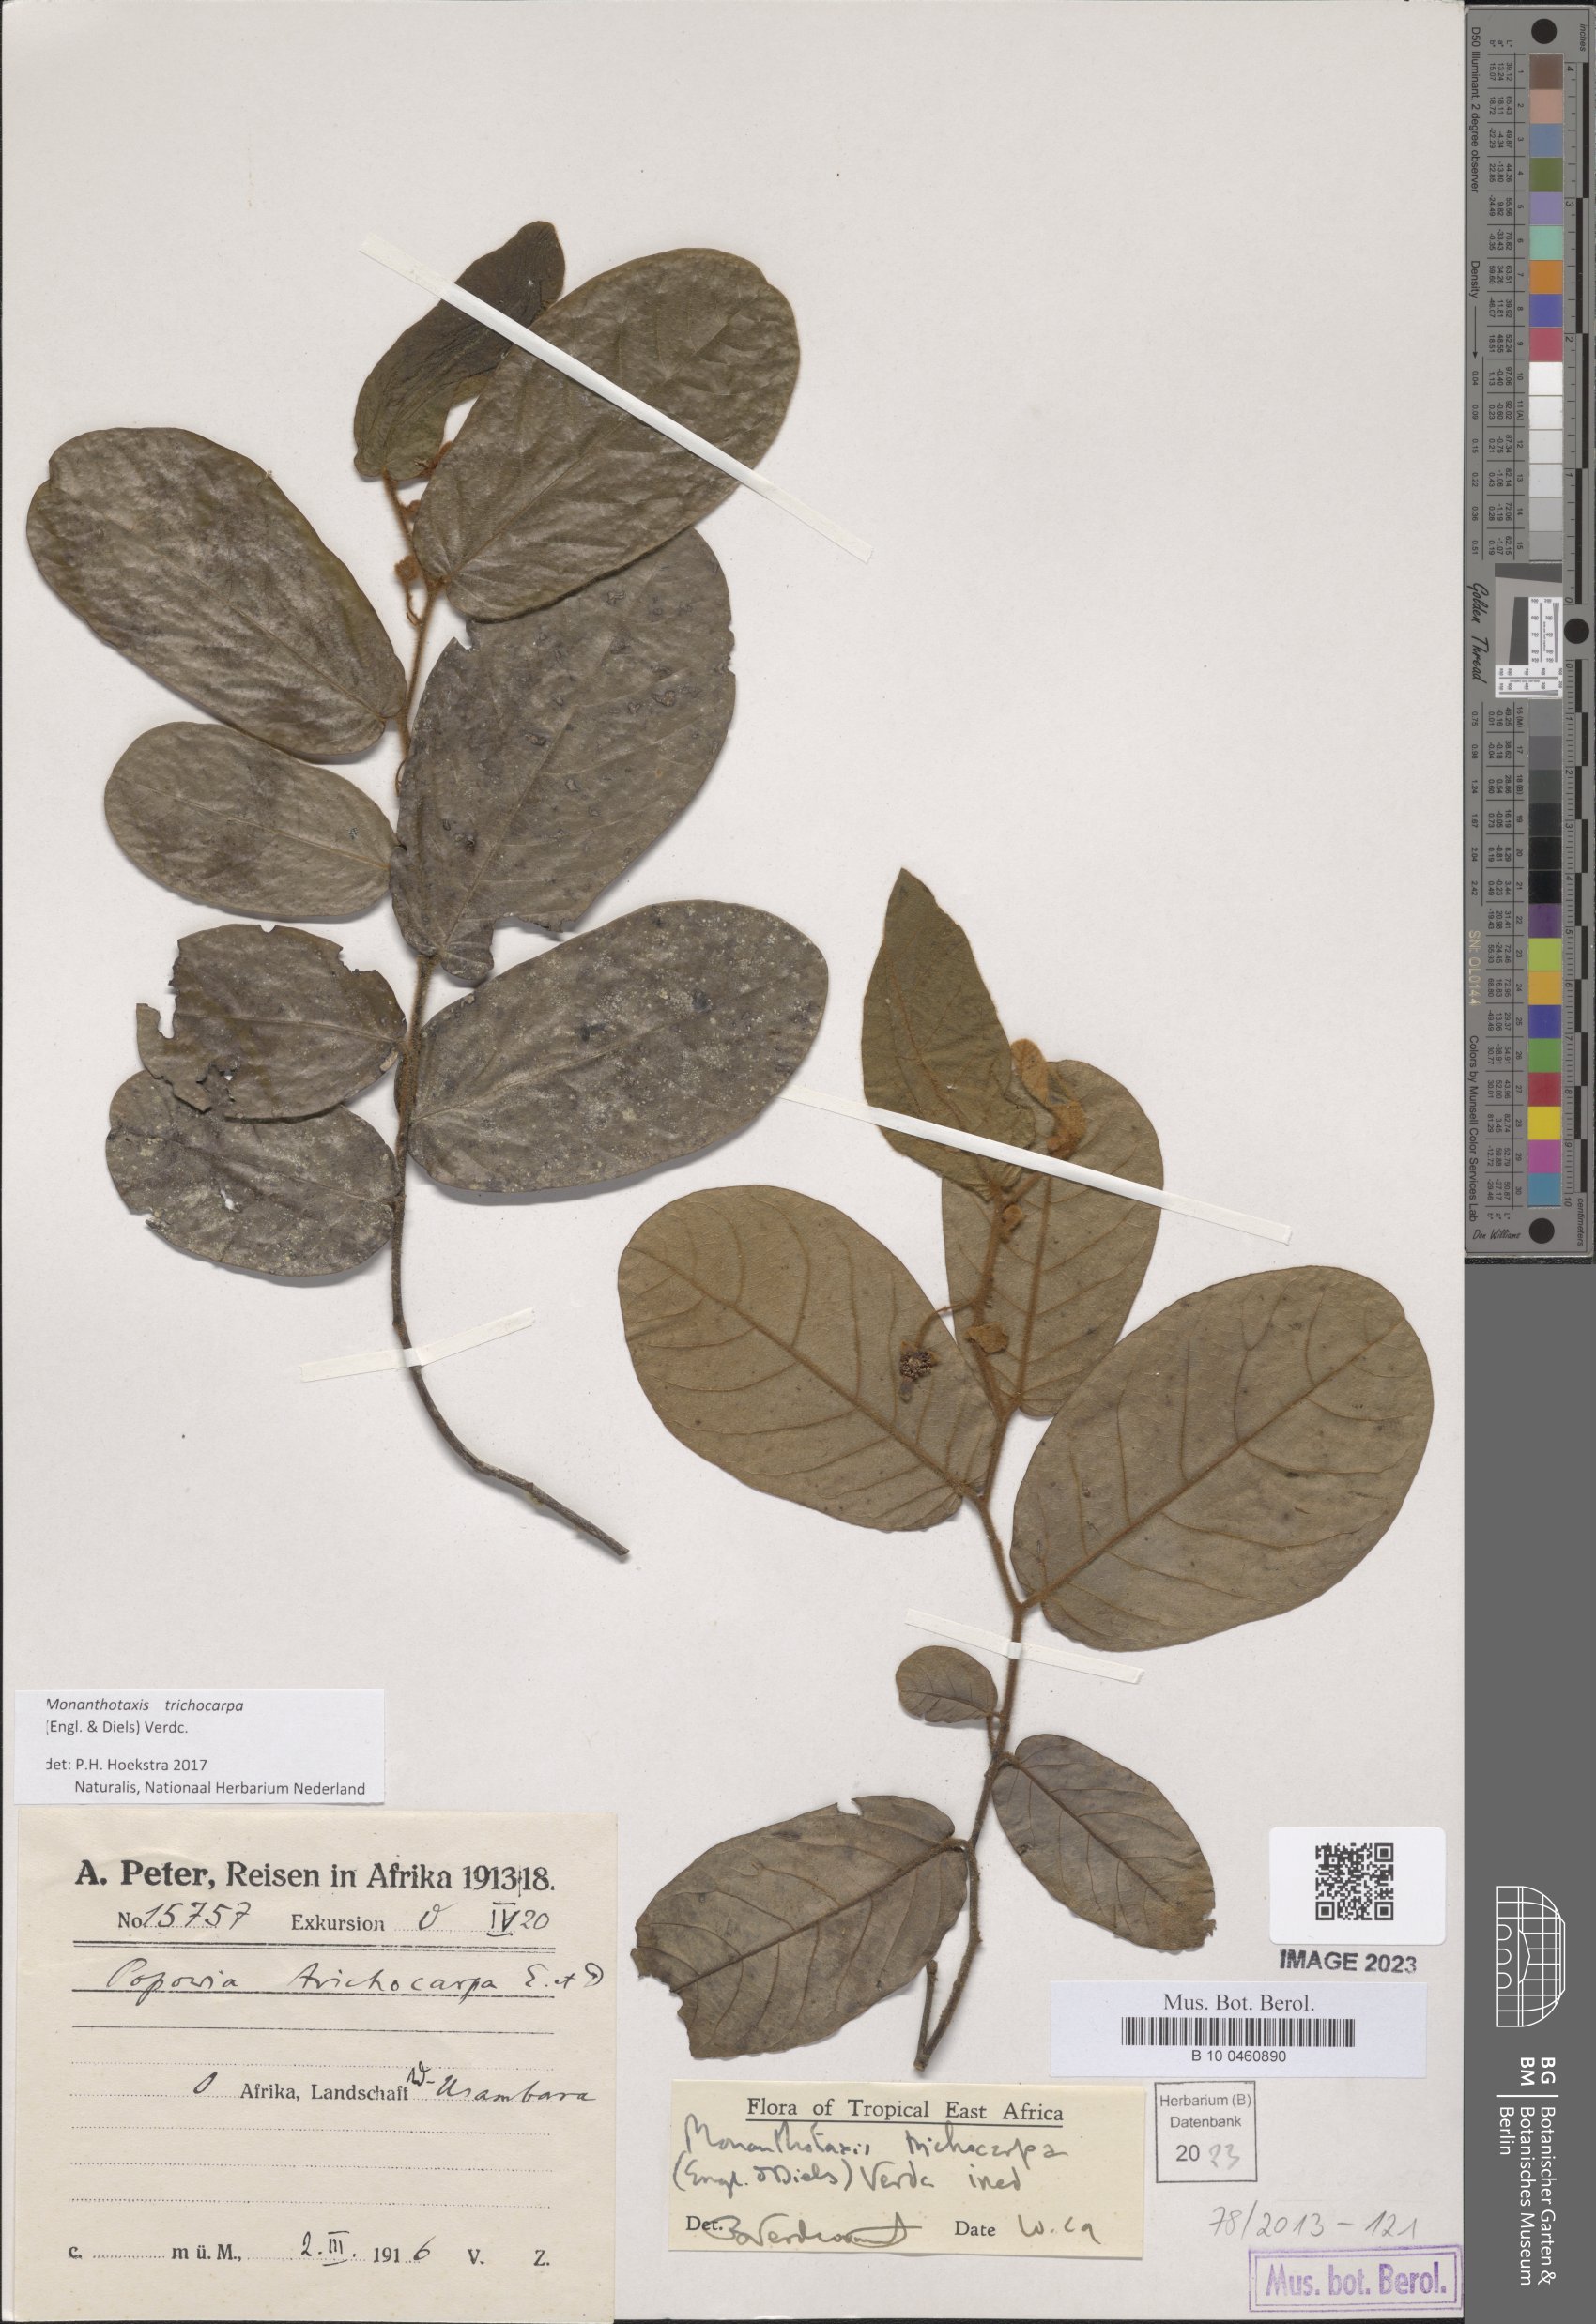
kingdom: Plantae
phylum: Tracheophyta
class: Magnoliopsida
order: Magnoliales
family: Annonaceae
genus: Monanthotaxis
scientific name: Monanthotaxis trichocarpa
